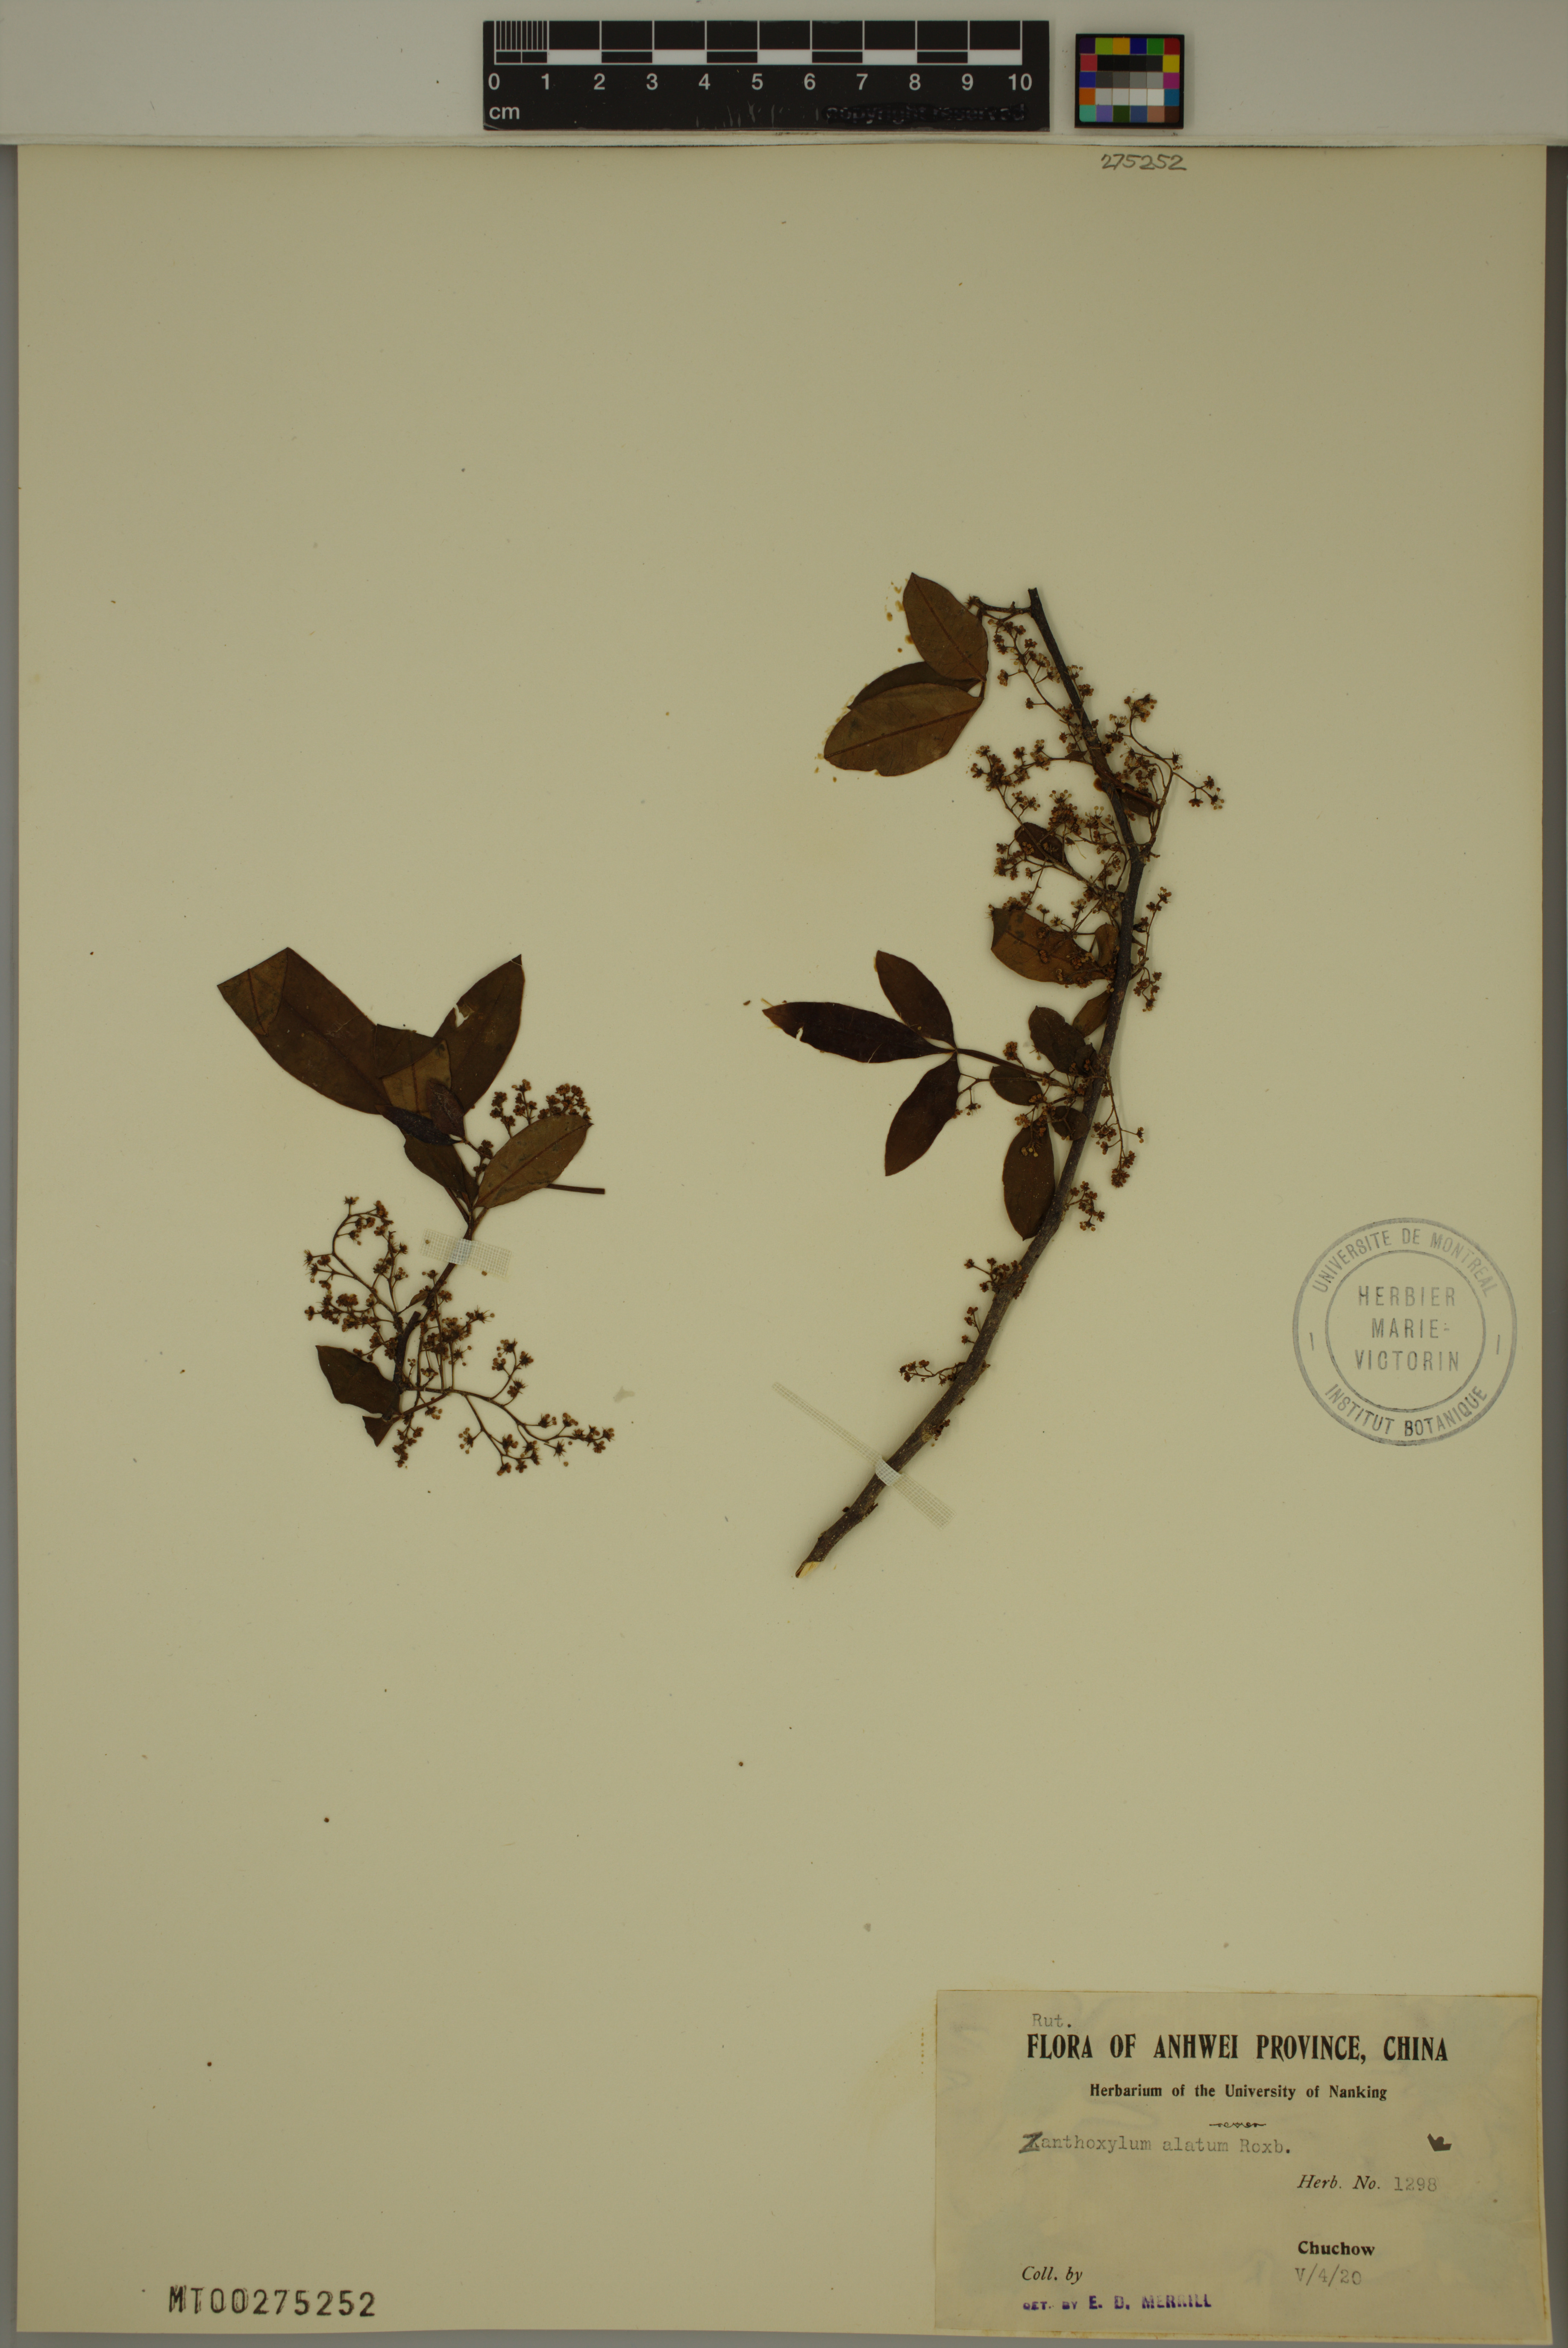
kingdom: Plantae
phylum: Tracheophyta
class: Magnoliopsida
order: Sapindales
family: Rutaceae
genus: Zanthoxylum
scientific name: Zanthoxylum armatum
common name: Winged prickly-ash
